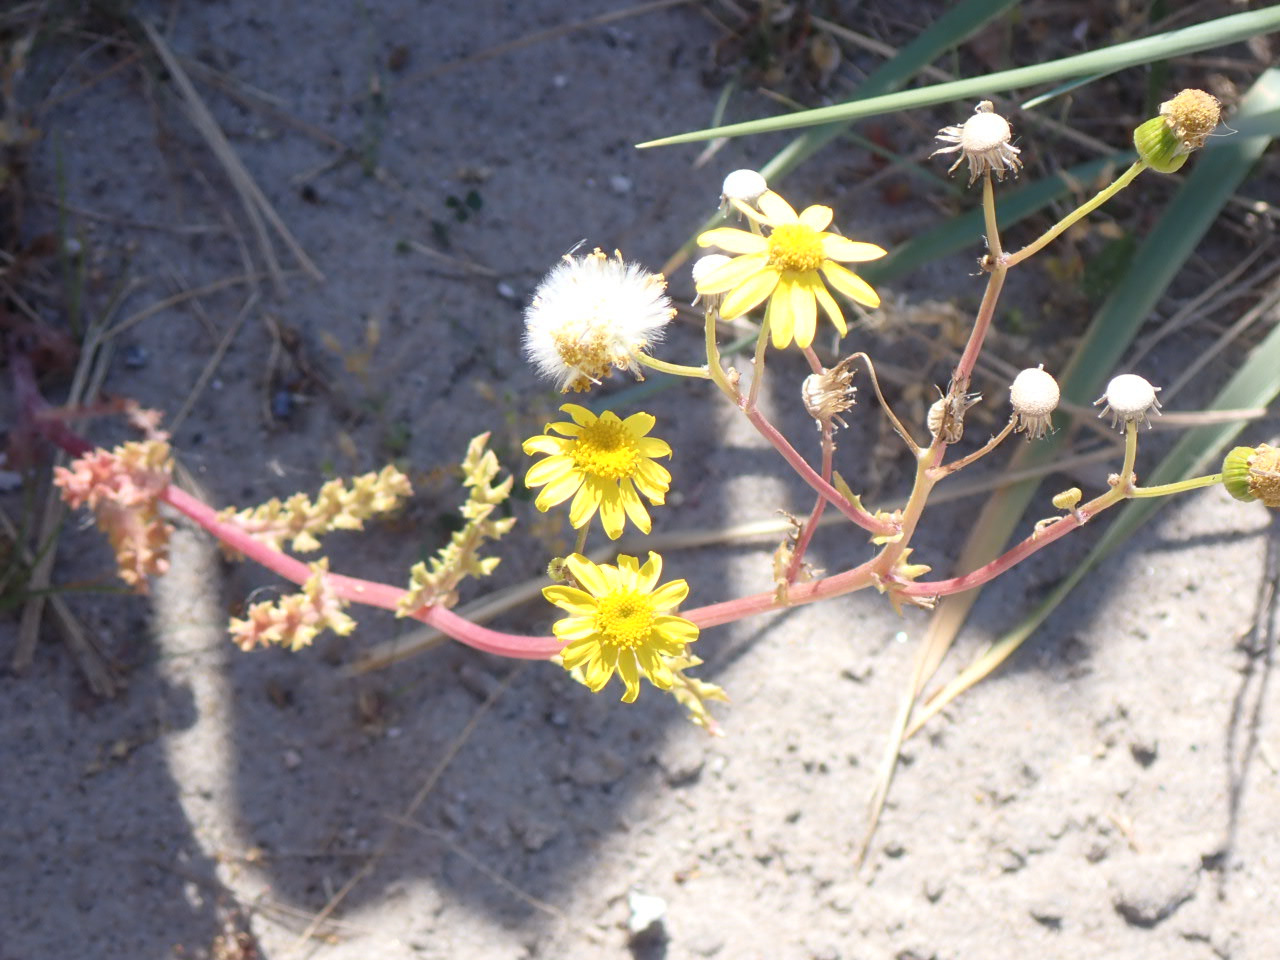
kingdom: Plantae
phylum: Tracheophyta
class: Magnoliopsida
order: Asterales
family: Asteraceae
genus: Senecio
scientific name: Senecio leucanthemifolius
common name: Vår-brandbæger
